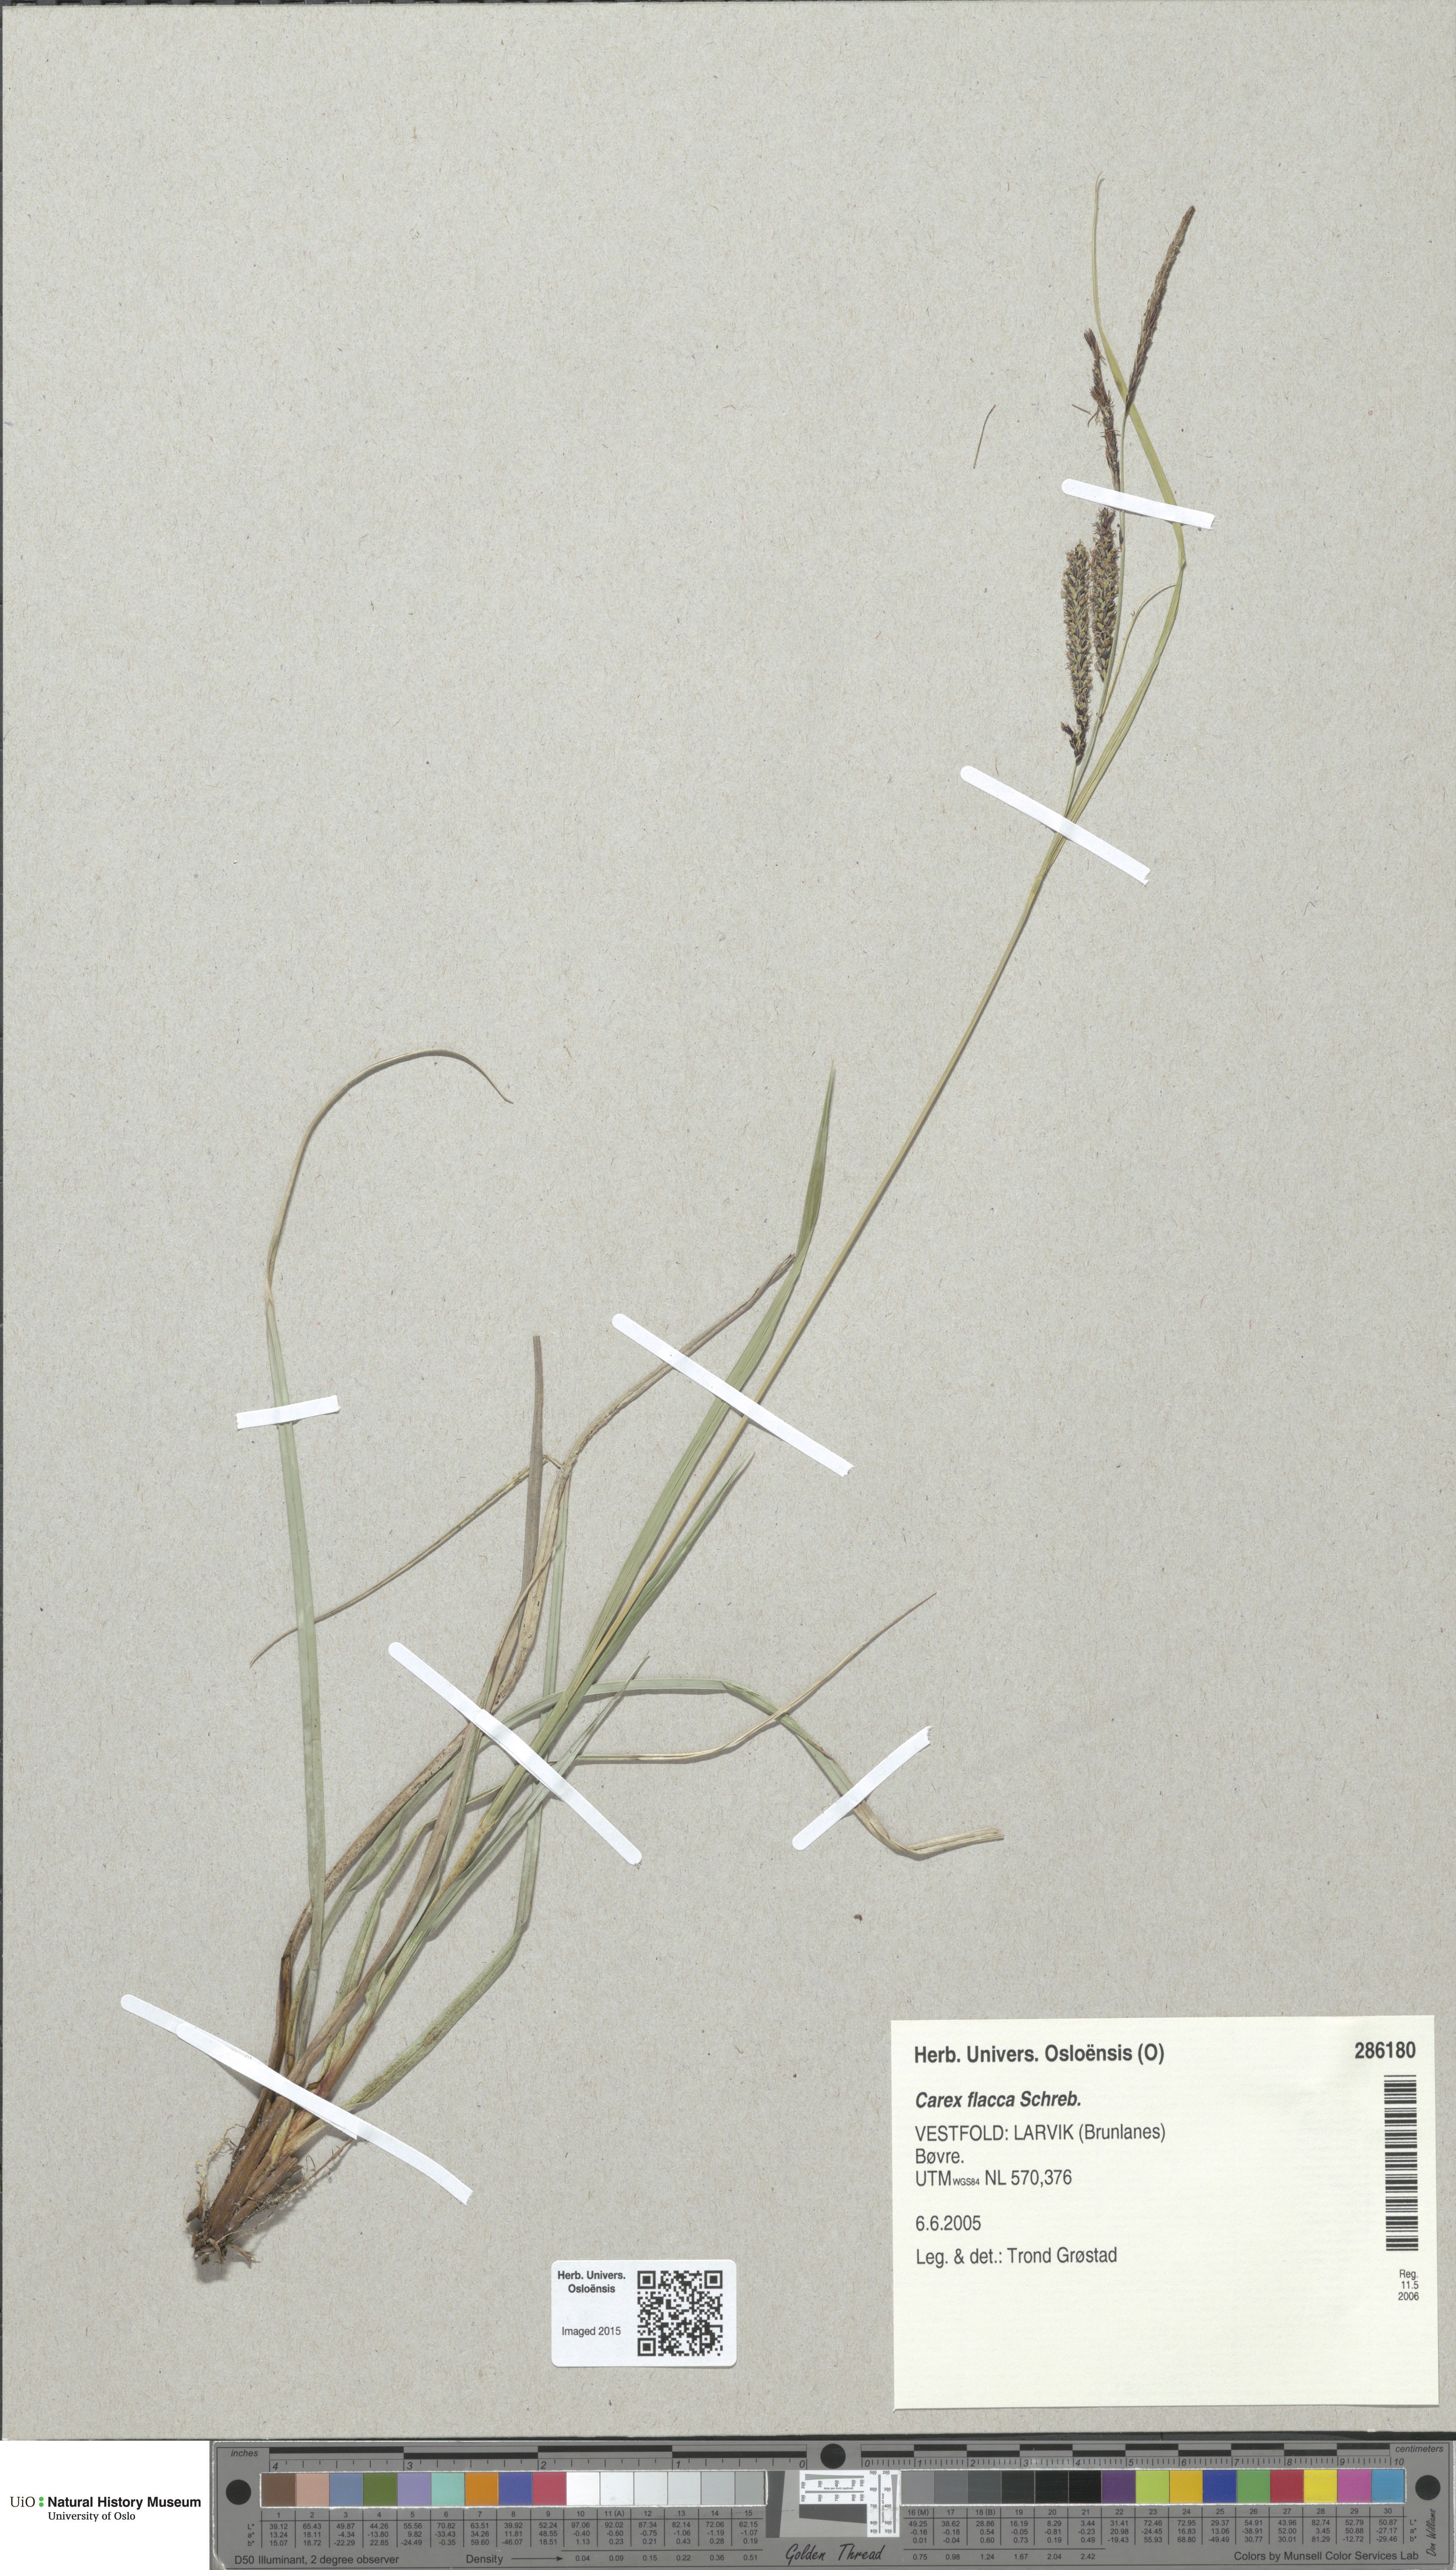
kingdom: Plantae
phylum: Tracheophyta
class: Liliopsida
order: Poales
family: Cyperaceae
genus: Carex
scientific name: Carex flacca
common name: Glaucous sedge
